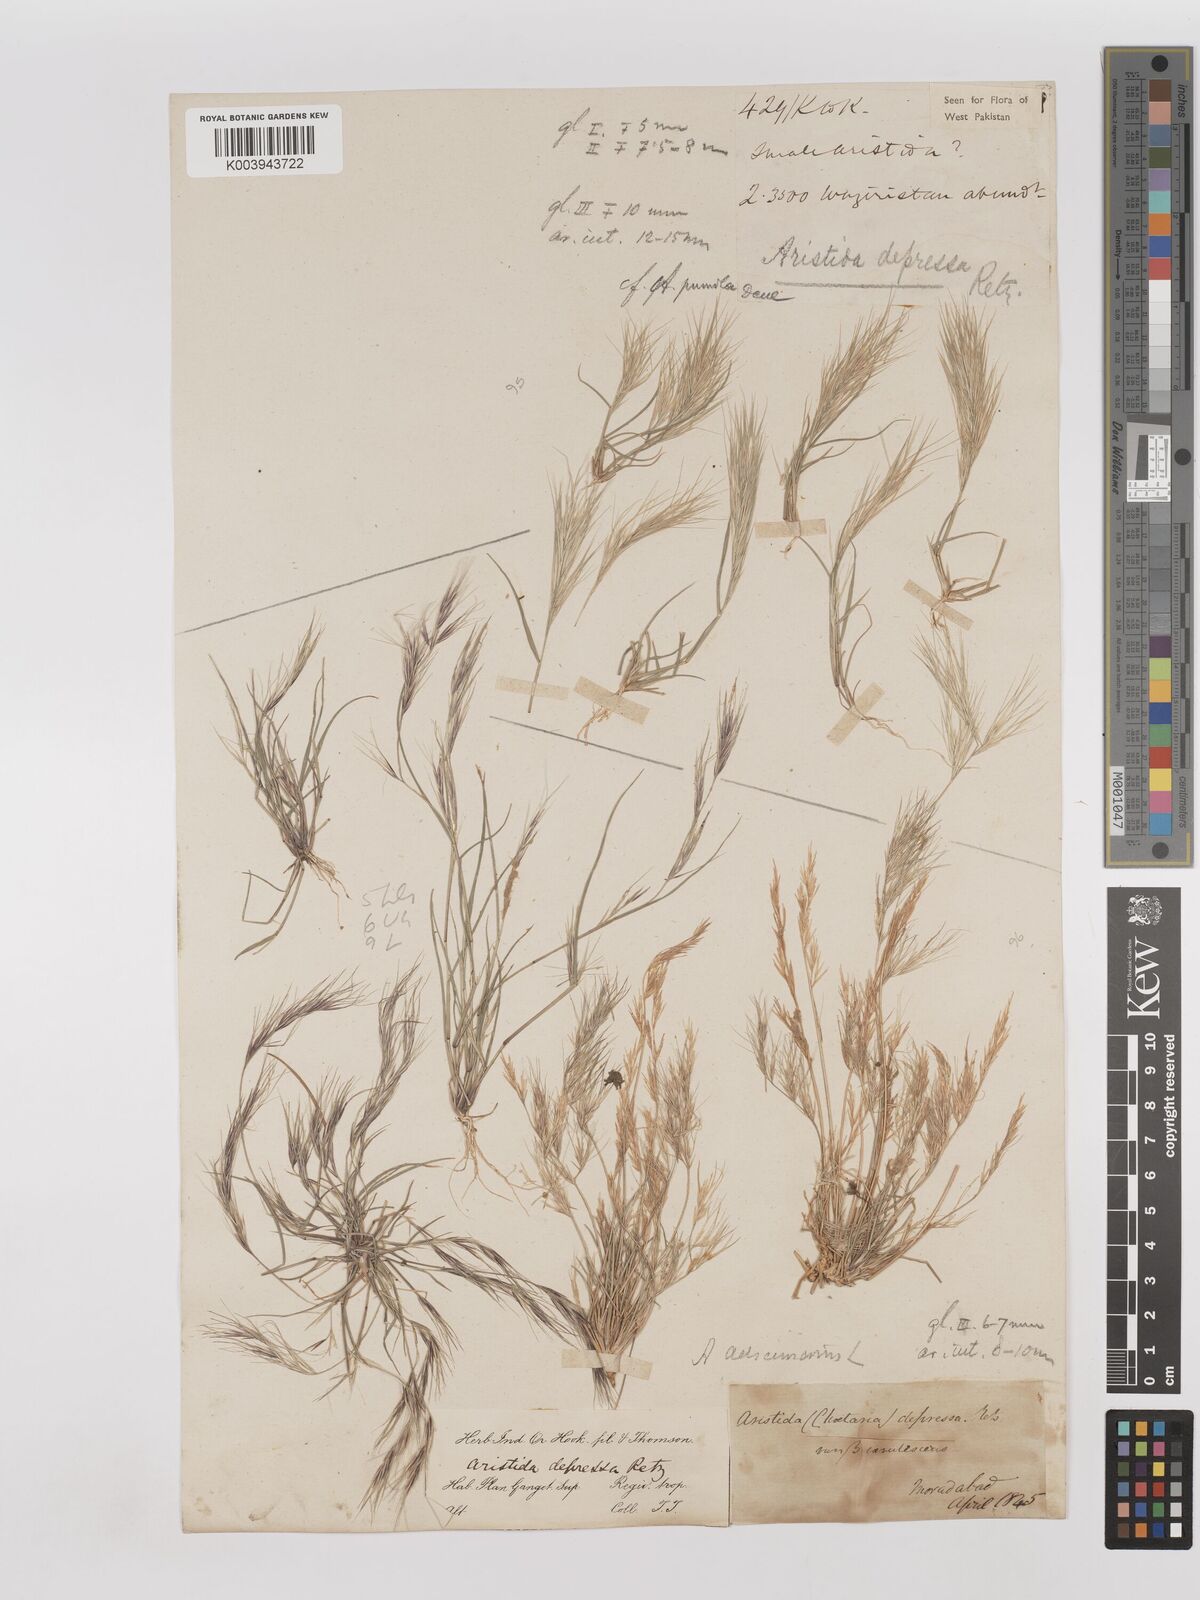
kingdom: Plantae
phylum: Tracheophyta
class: Liliopsida
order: Poales
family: Poaceae
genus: Aristida
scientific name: Aristida adscensionis
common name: Sixweeks threeawn
